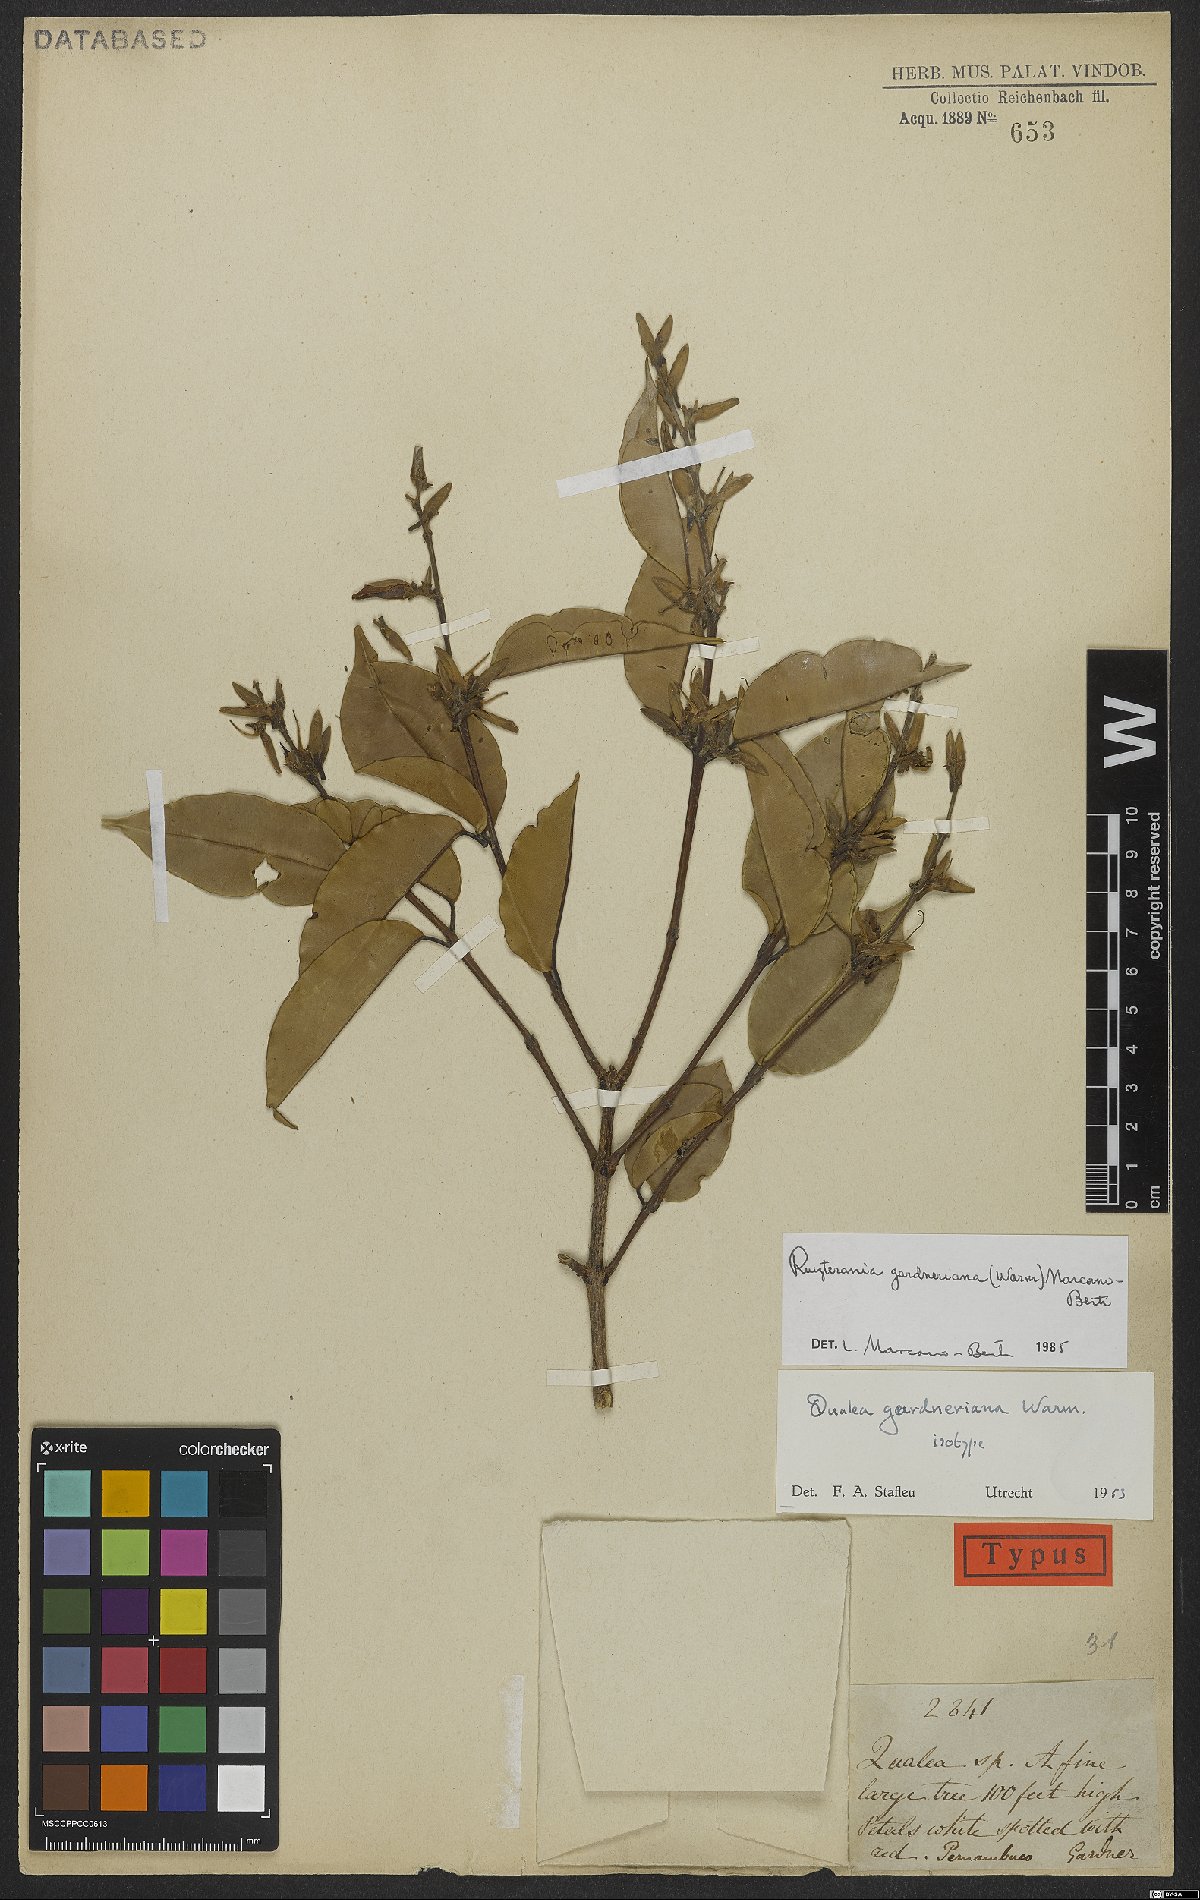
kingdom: Plantae
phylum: Tracheophyta
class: Magnoliopsida
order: Myrtales
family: Vochysiaceae
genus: Ruizterania
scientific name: Ruizterania gardneriana
